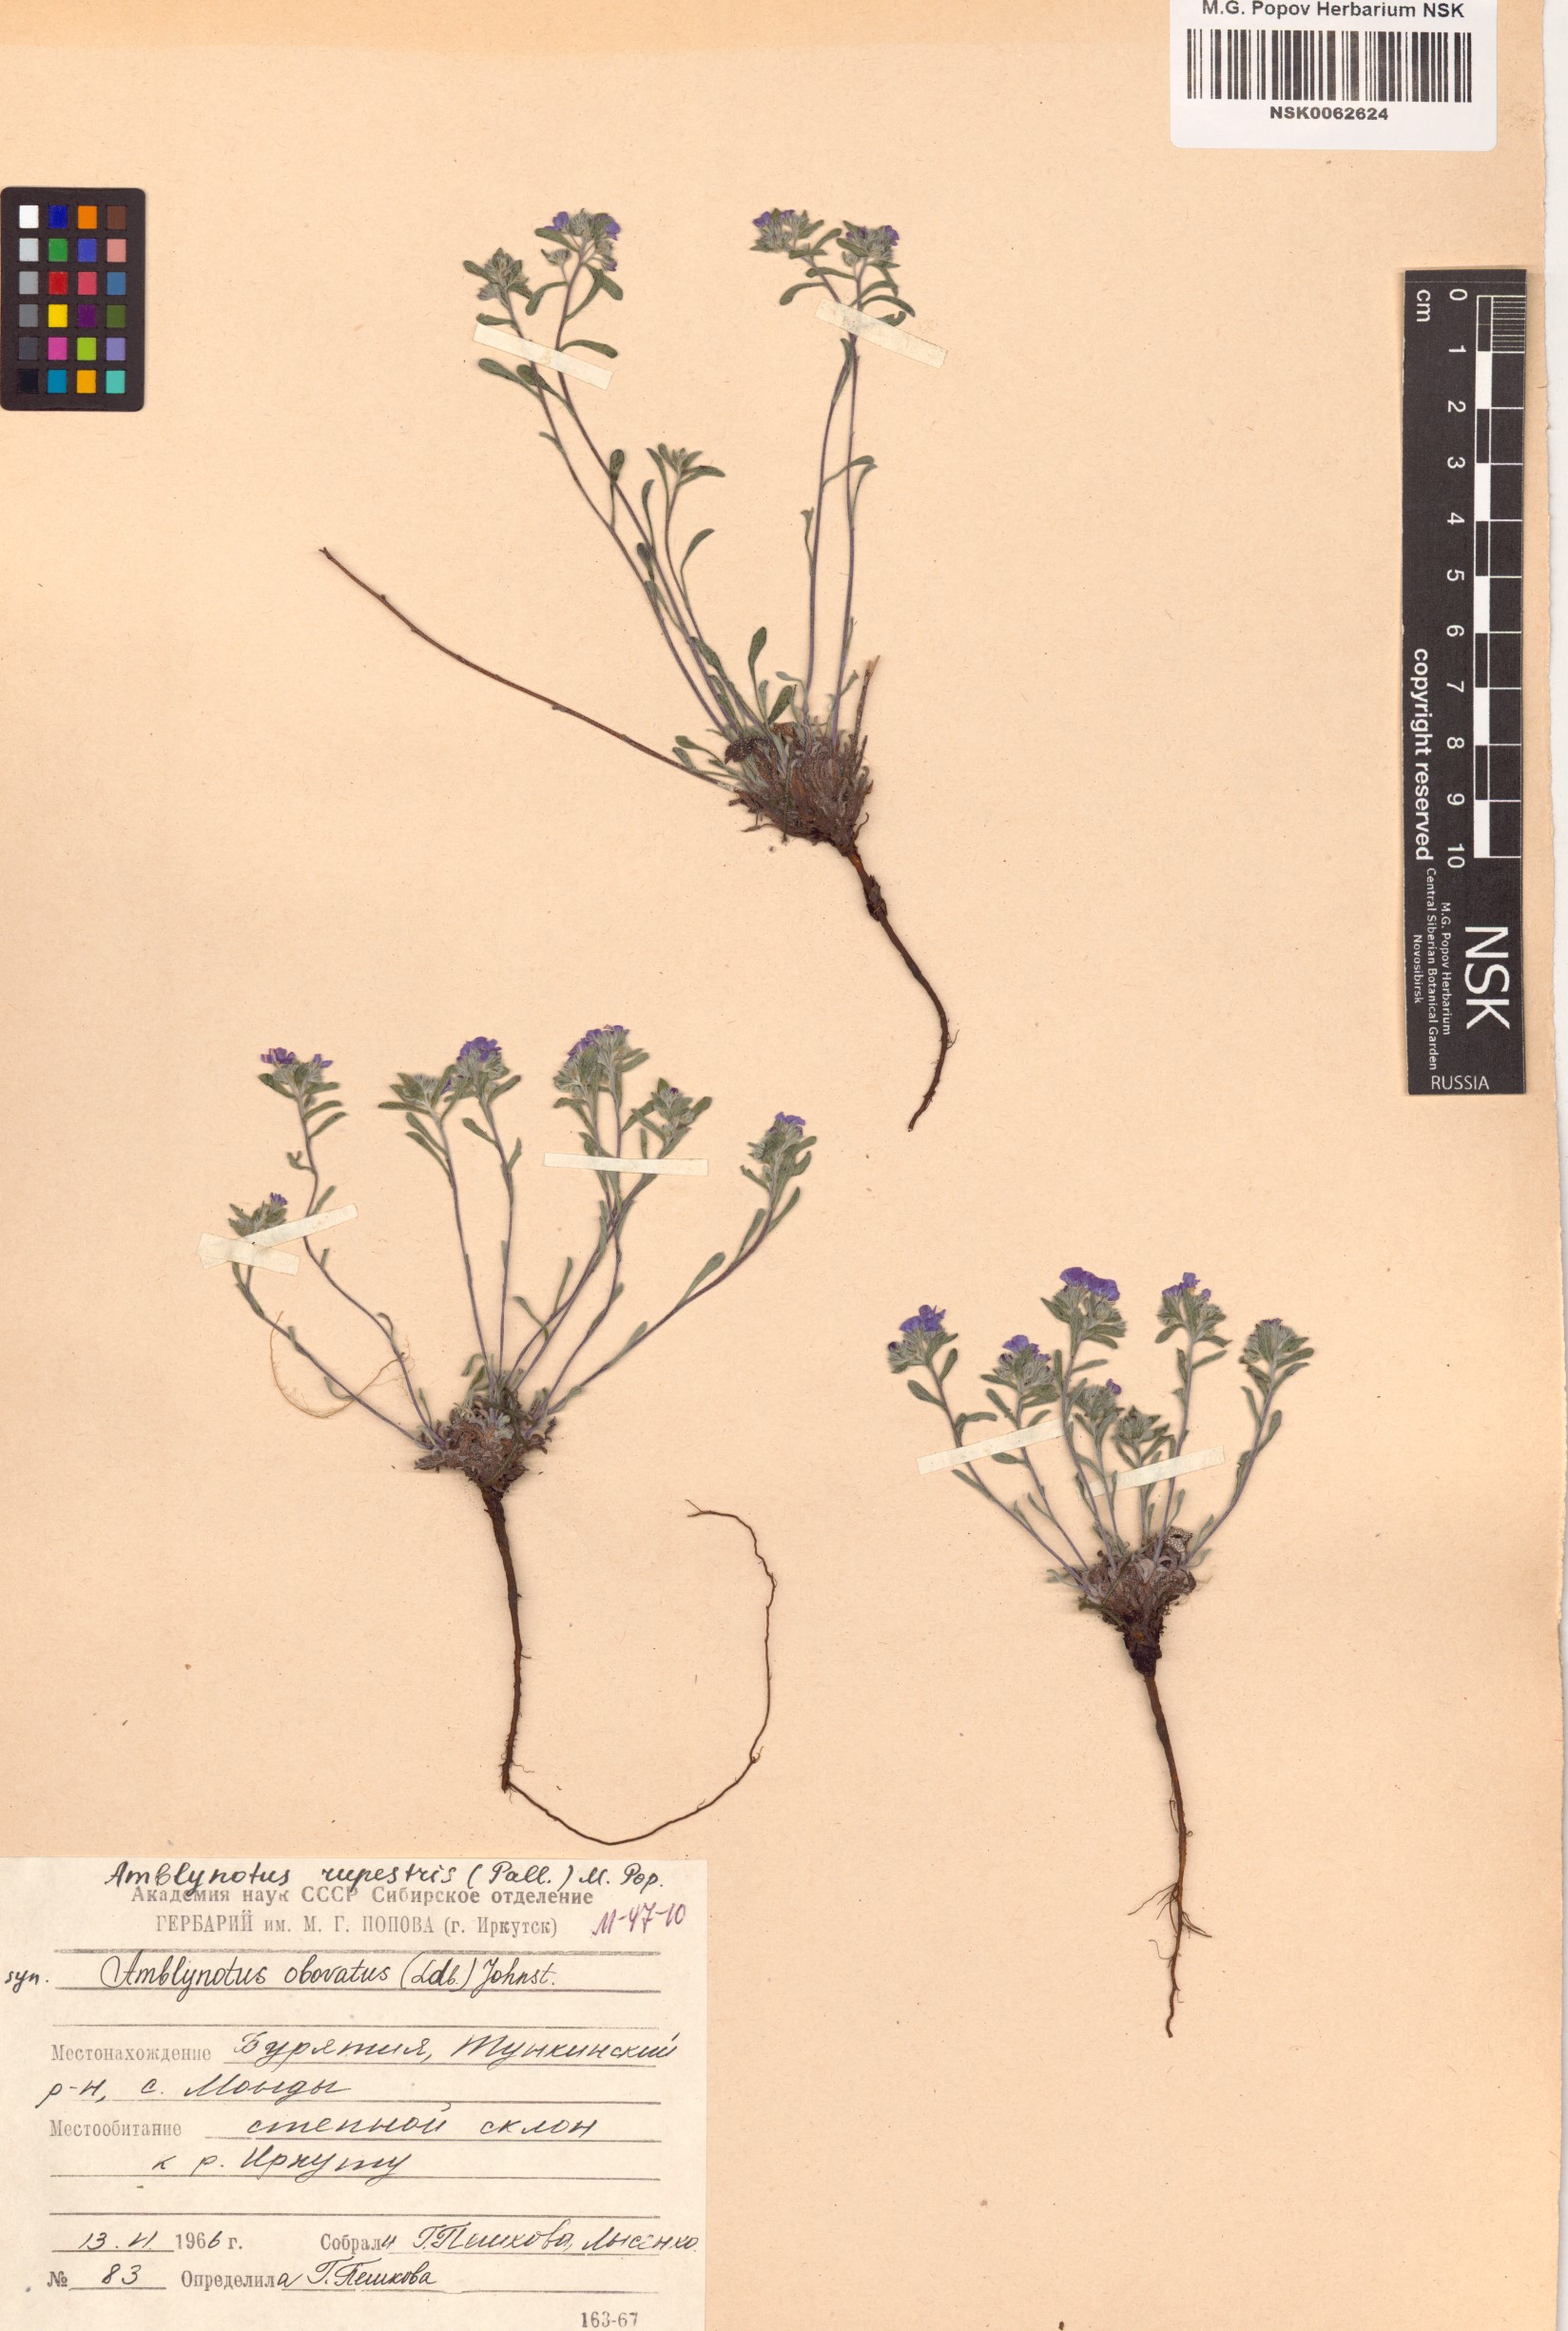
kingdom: Plantae
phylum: Tracheophyta
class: Magnoliopsida
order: Boraginales
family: Boraginaceae
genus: Eritrichium
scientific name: Eritrichium rupestre
